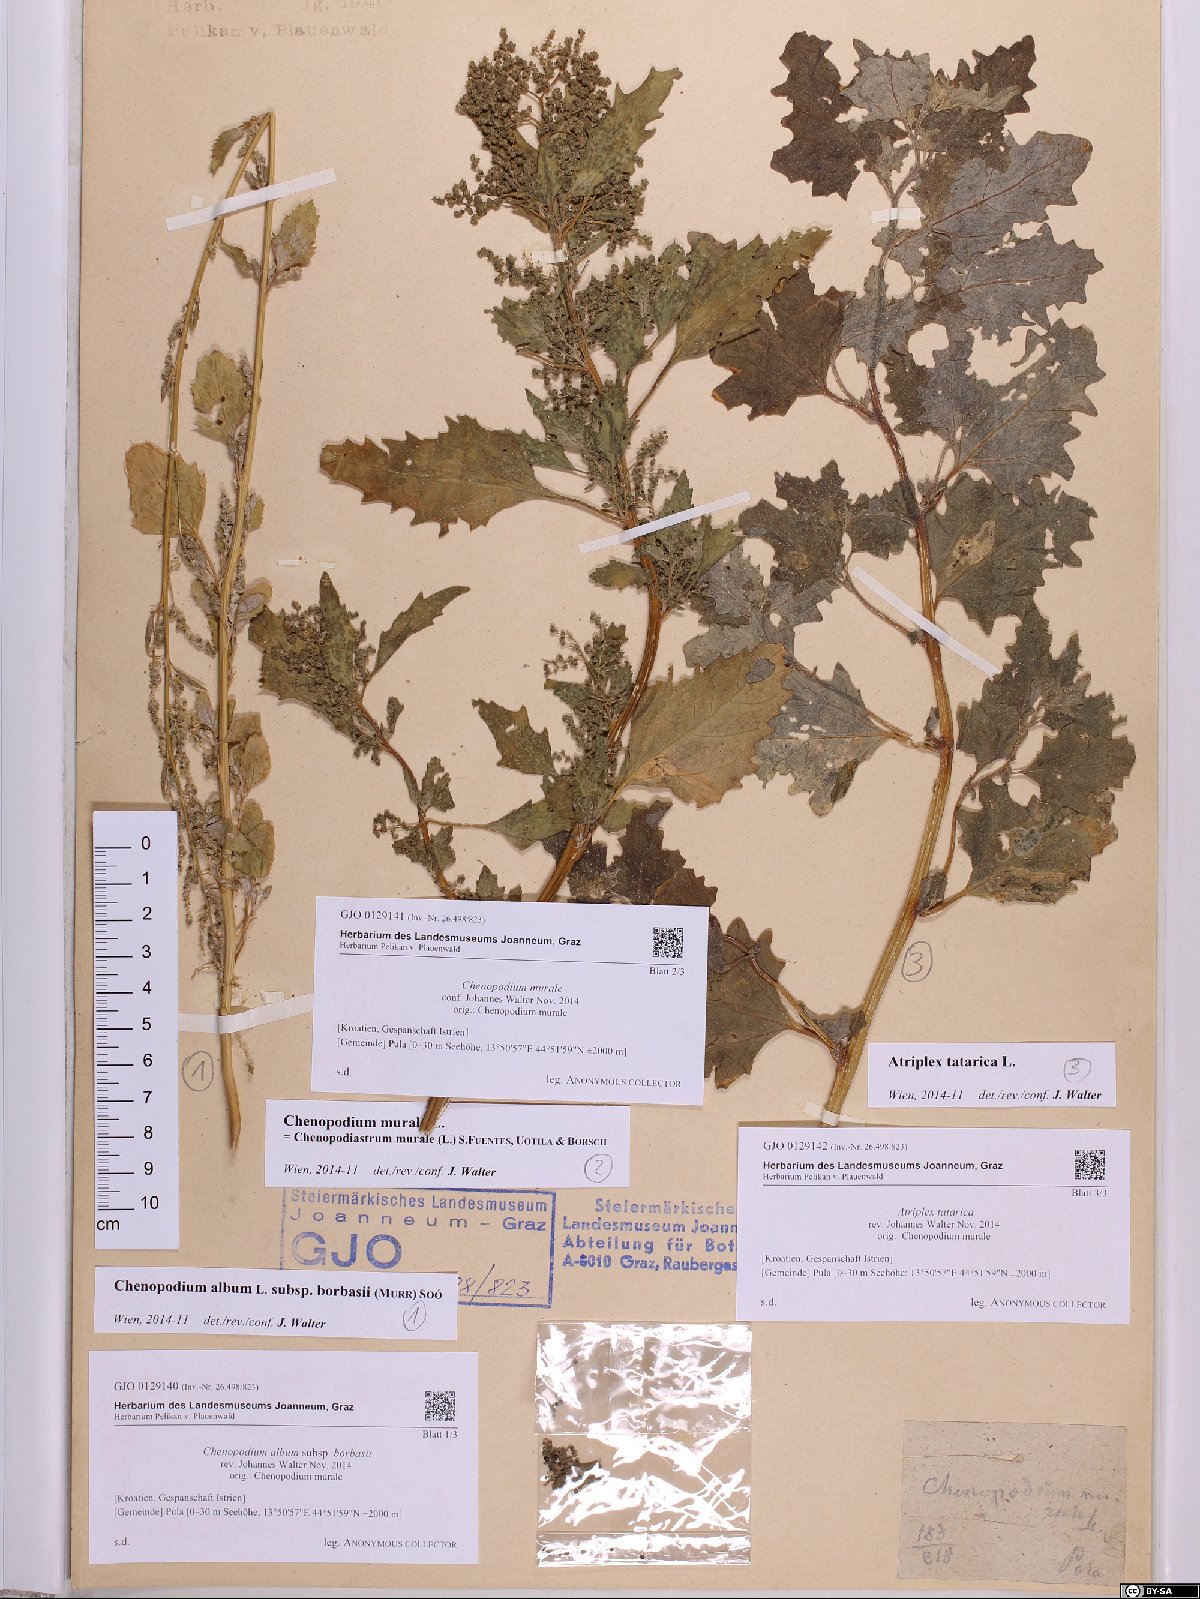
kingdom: Plantae
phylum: Tracheophyta
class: Magnoliopsida
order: Caryophyllales
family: Amaranthaceae
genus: Chenopodium
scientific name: Chenopodium borbasii
